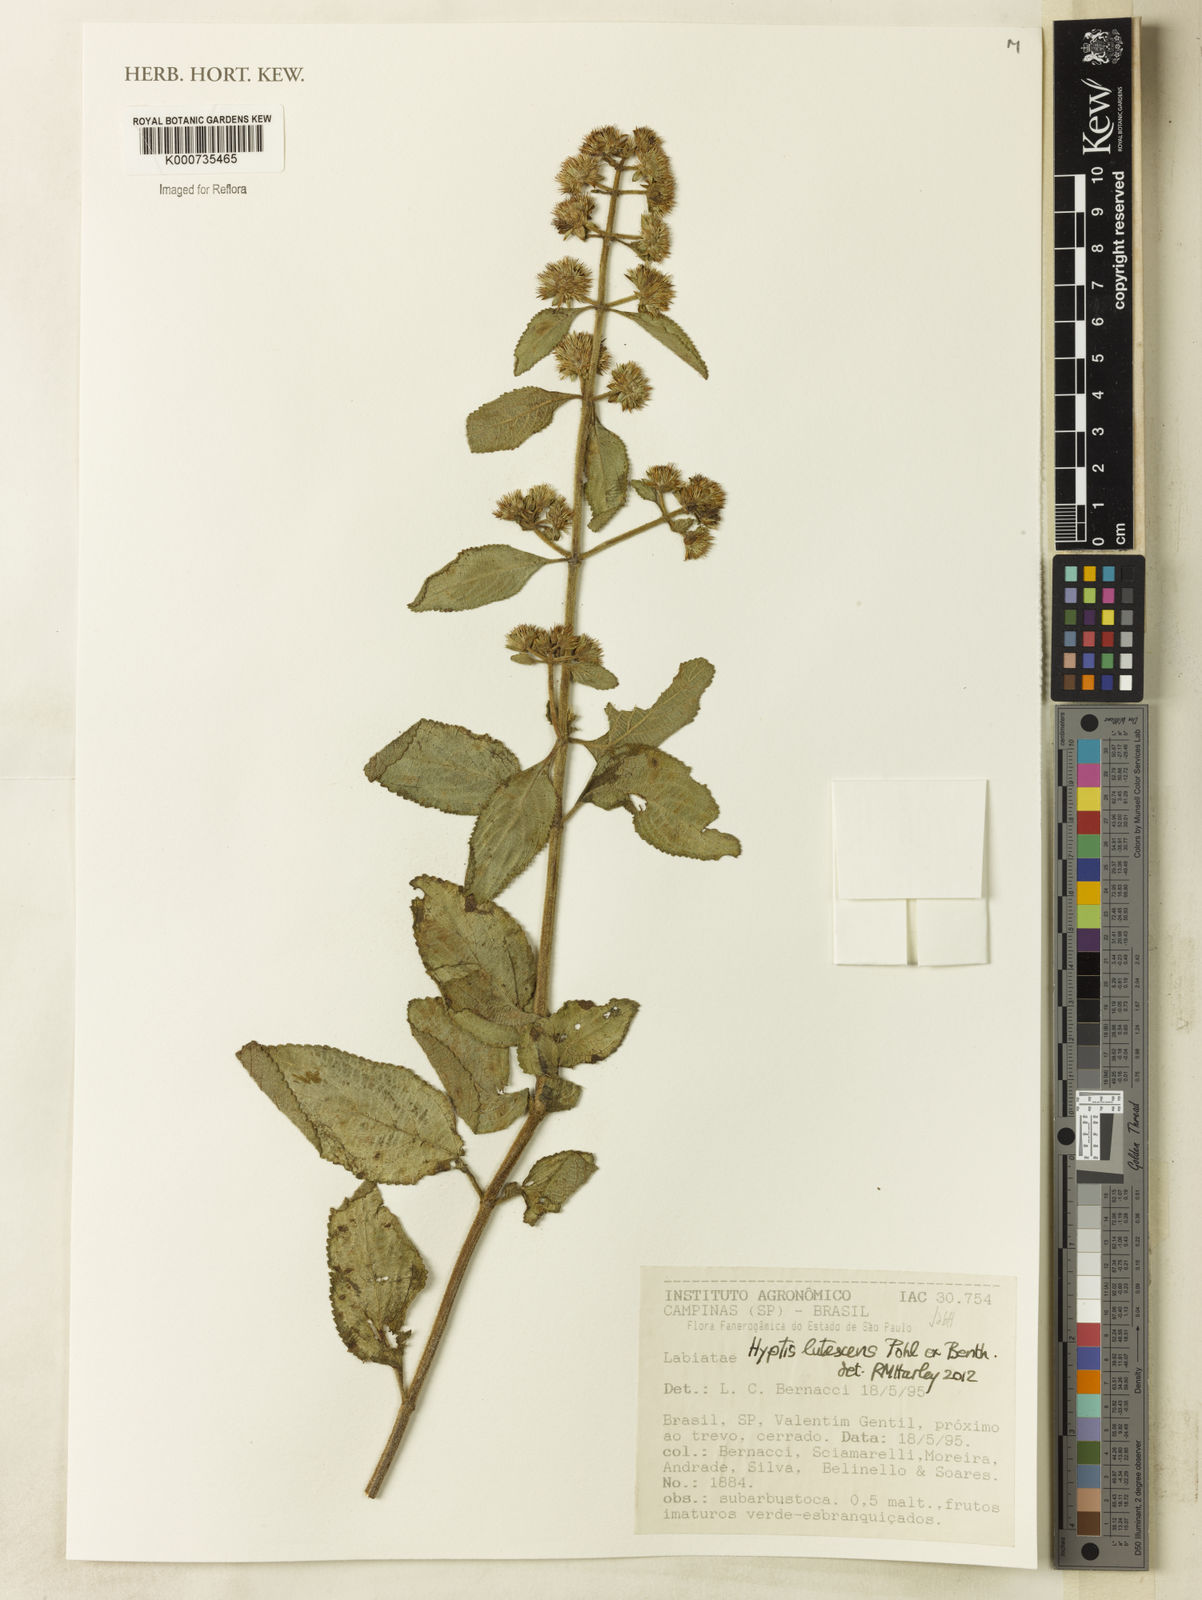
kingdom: Plantae
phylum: Tracheophyta
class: Magnoliopsida
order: Lamiales
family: Lamiaceae
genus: Hyptis
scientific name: Hyptis lutescens
